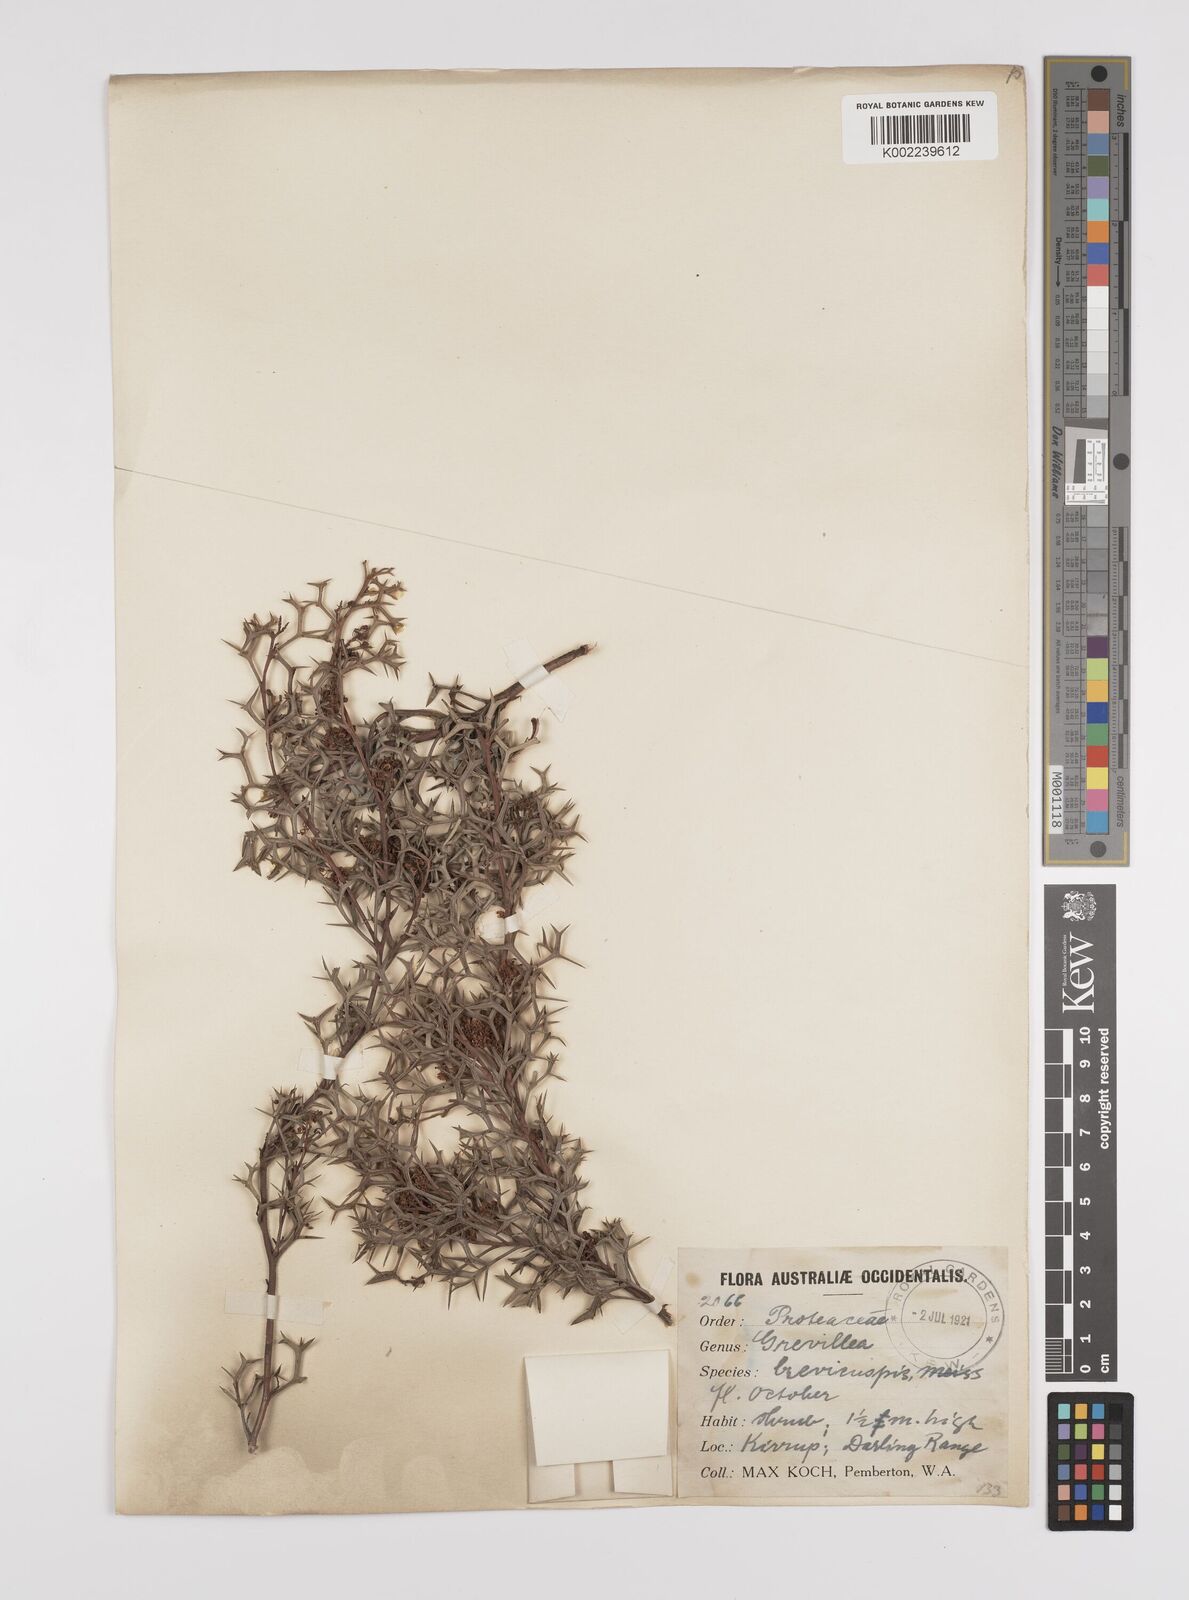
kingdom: Plantae
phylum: Tracheophyta
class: Magnoliopsida
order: Proteales
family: Proteaceae
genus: Grevillea
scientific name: Grevillea trifida
